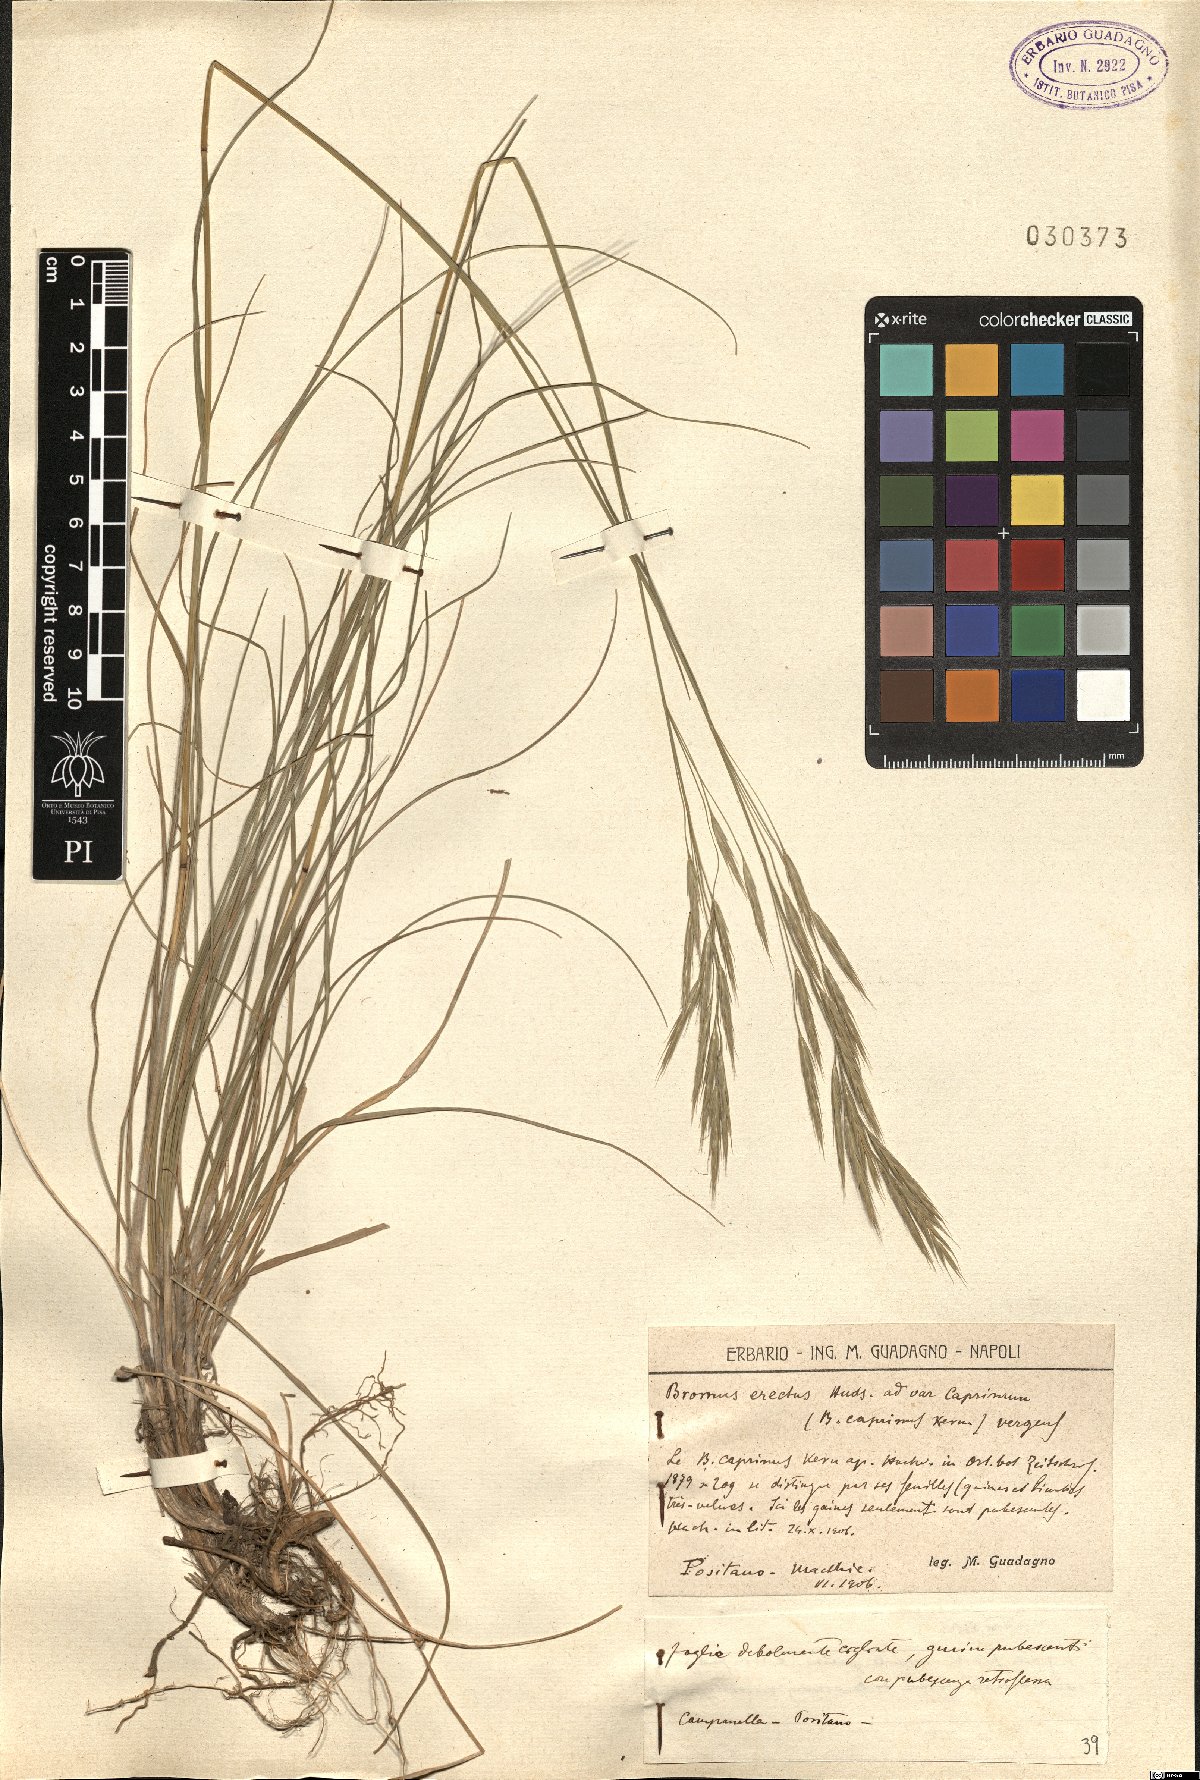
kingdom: Plantae
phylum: Tracheophyta
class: Liliopsida
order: Poales
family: Poaceae
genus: Bromus
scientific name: Bromus erectus
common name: Erect brome
